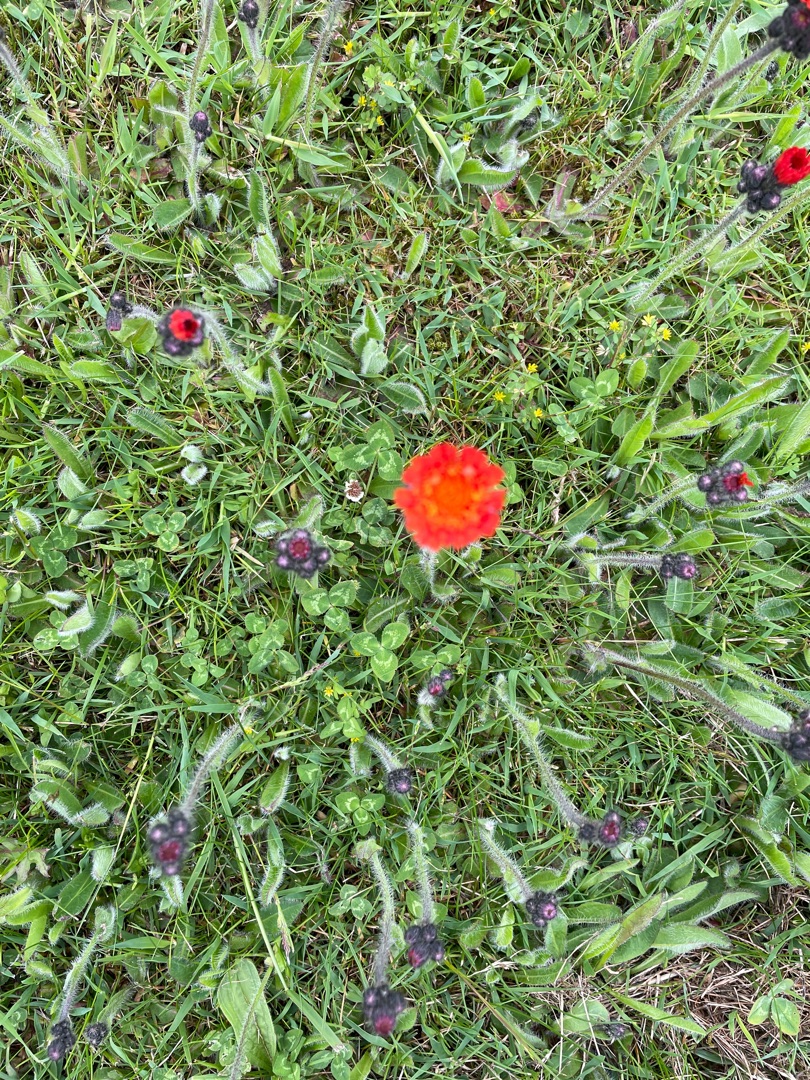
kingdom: Plantae
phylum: Tracheophyta
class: Magnoliopsida
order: Asterales
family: Asteraceae
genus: Pilosella
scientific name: Pilosella aurantiaca
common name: Pomerans-høgeurt
